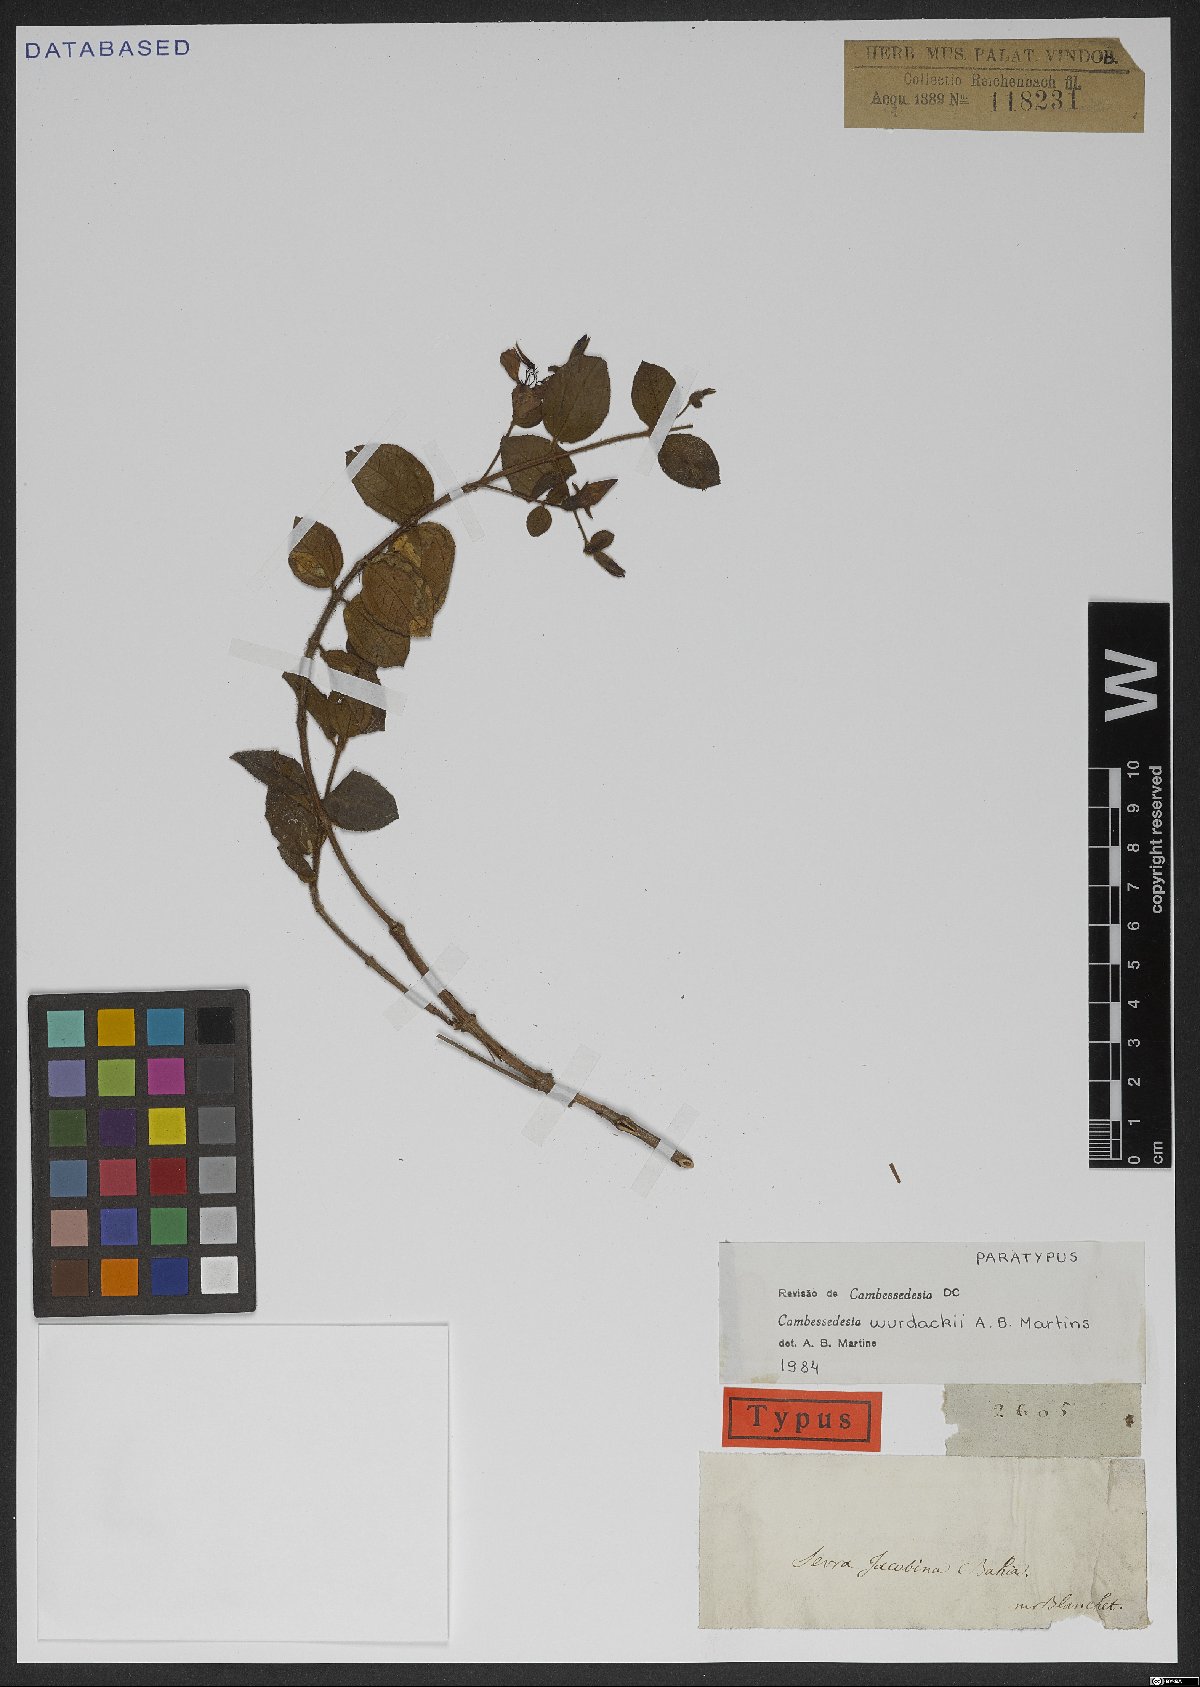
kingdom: Plantae
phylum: Tracheophyta
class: Magnoliopsida
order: Myrtales
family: Melastomataceae
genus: Cambessedesia
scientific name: Cambessedesia wurdackii
